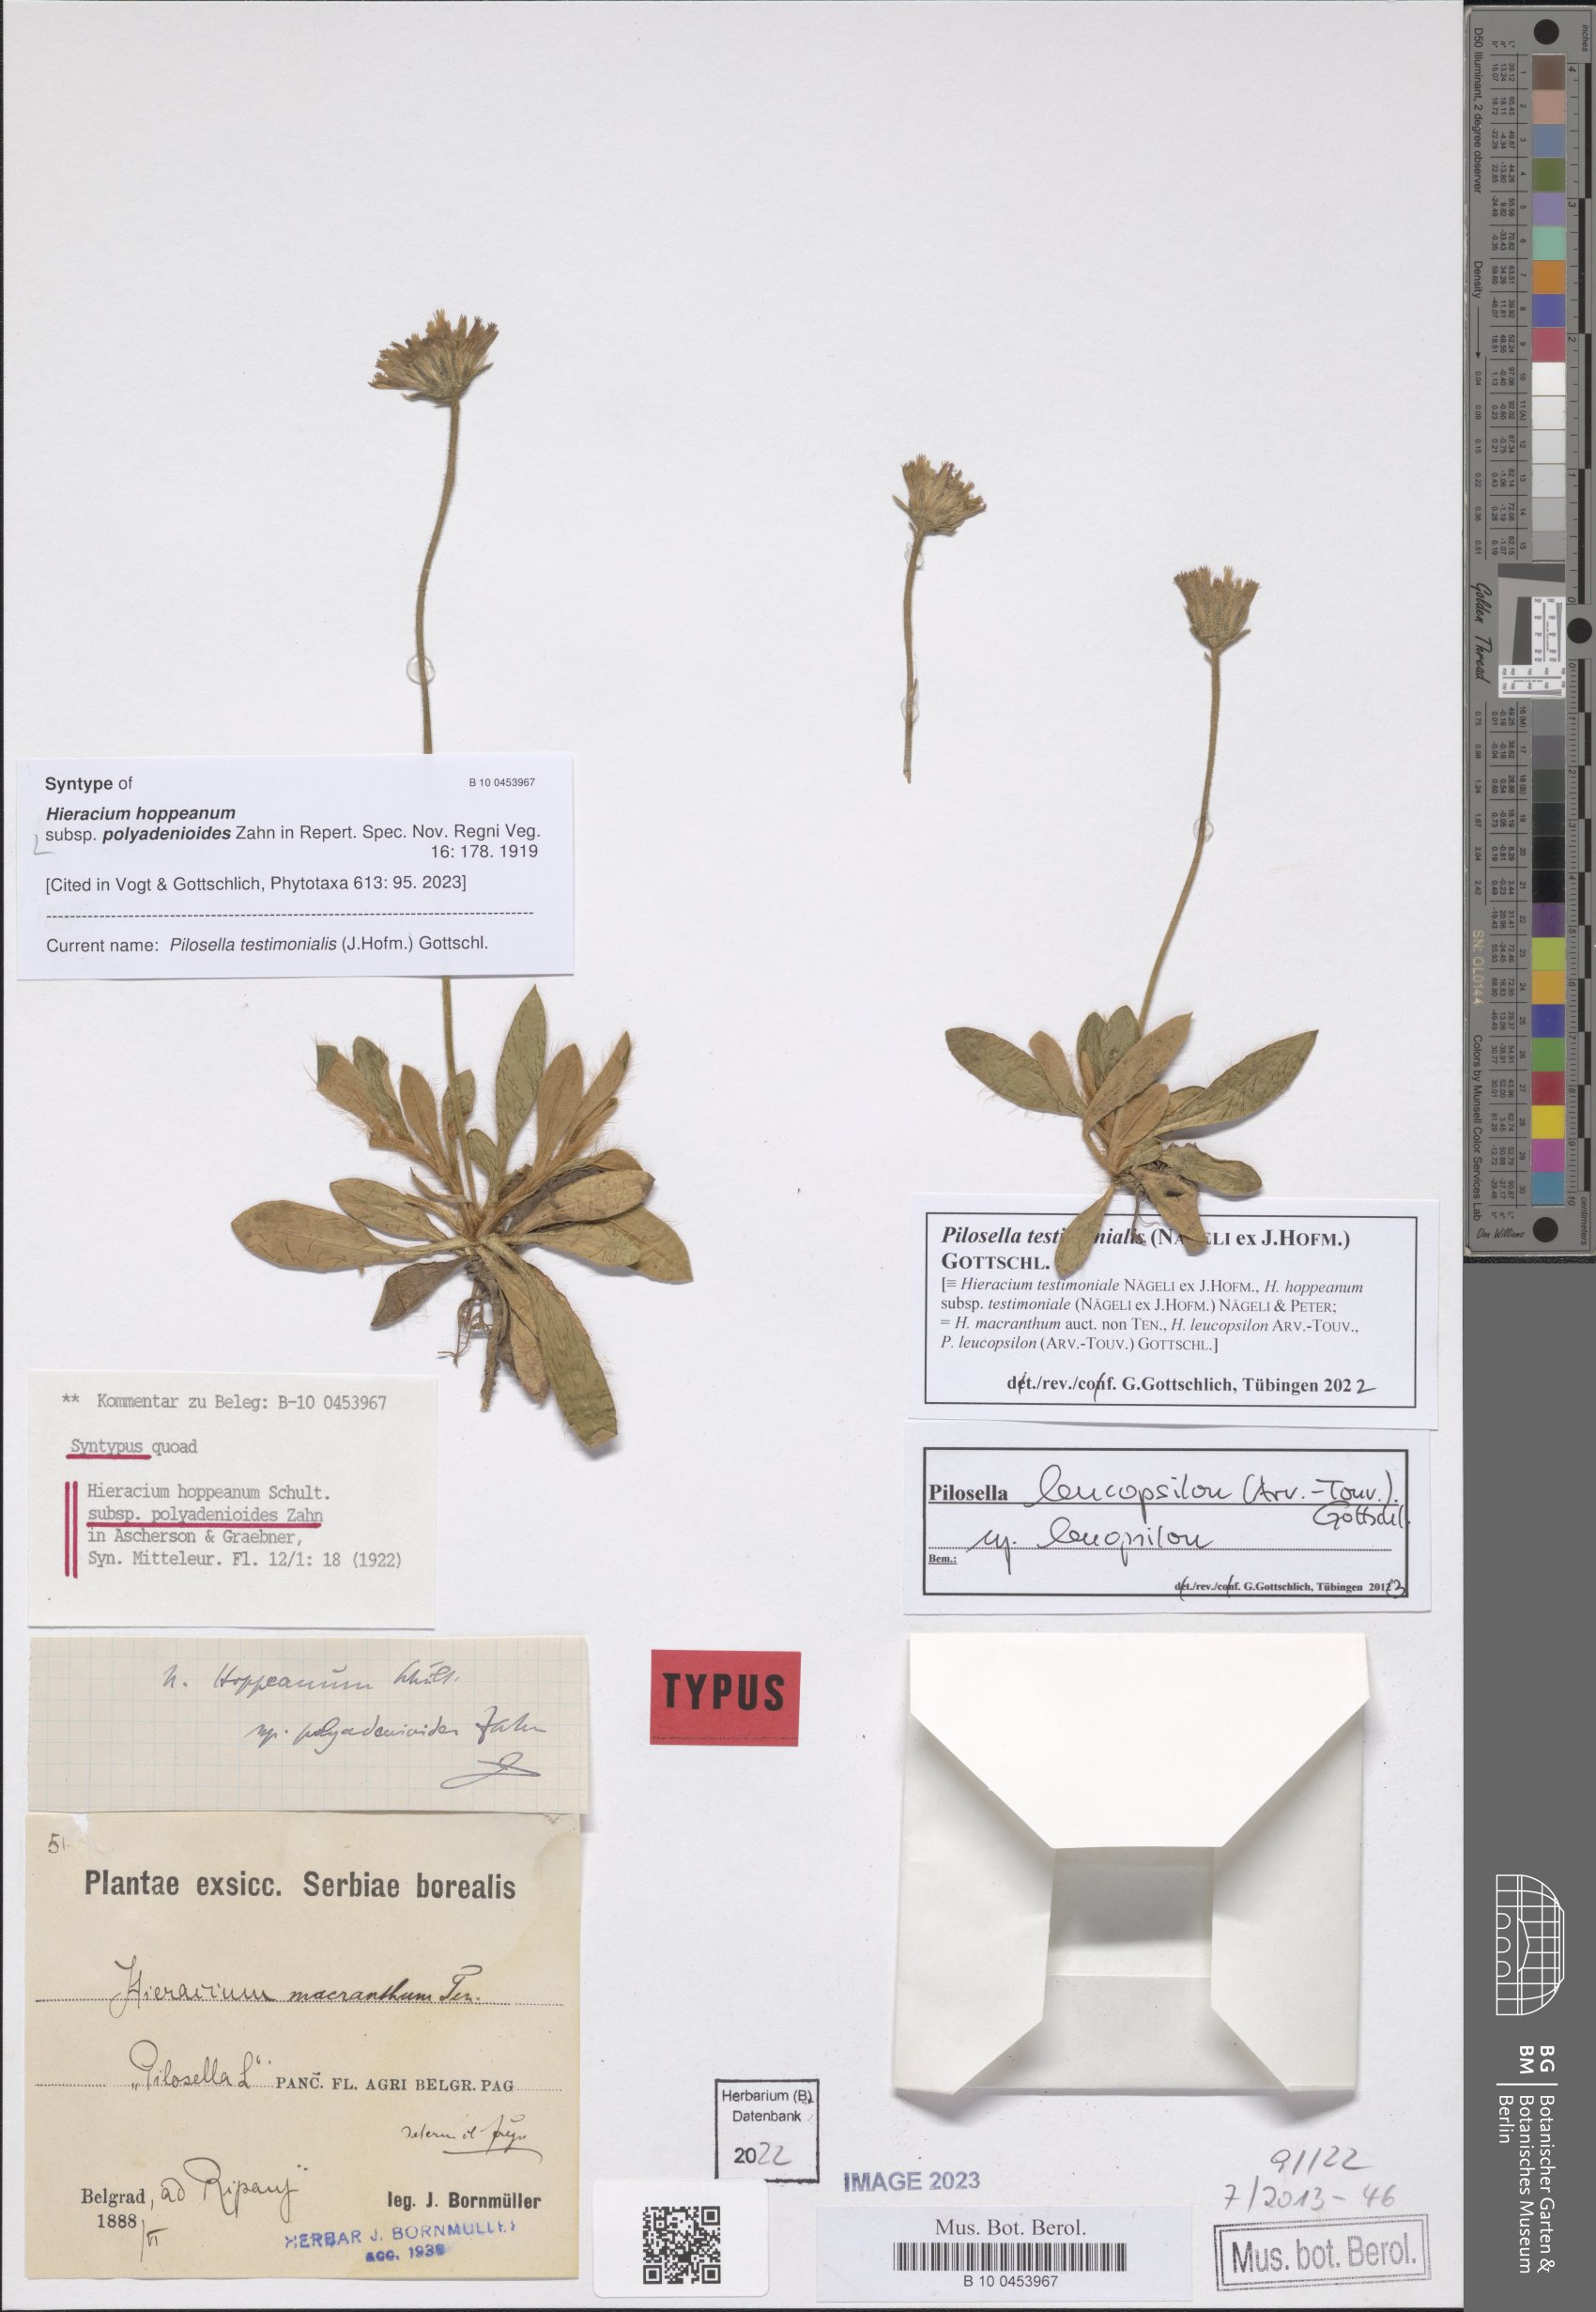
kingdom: Plantae
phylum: Tracheophyta
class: Magnoliopsida
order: Asterales
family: Asteraceae
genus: Pilosella
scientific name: Pilosella leucopsilon
